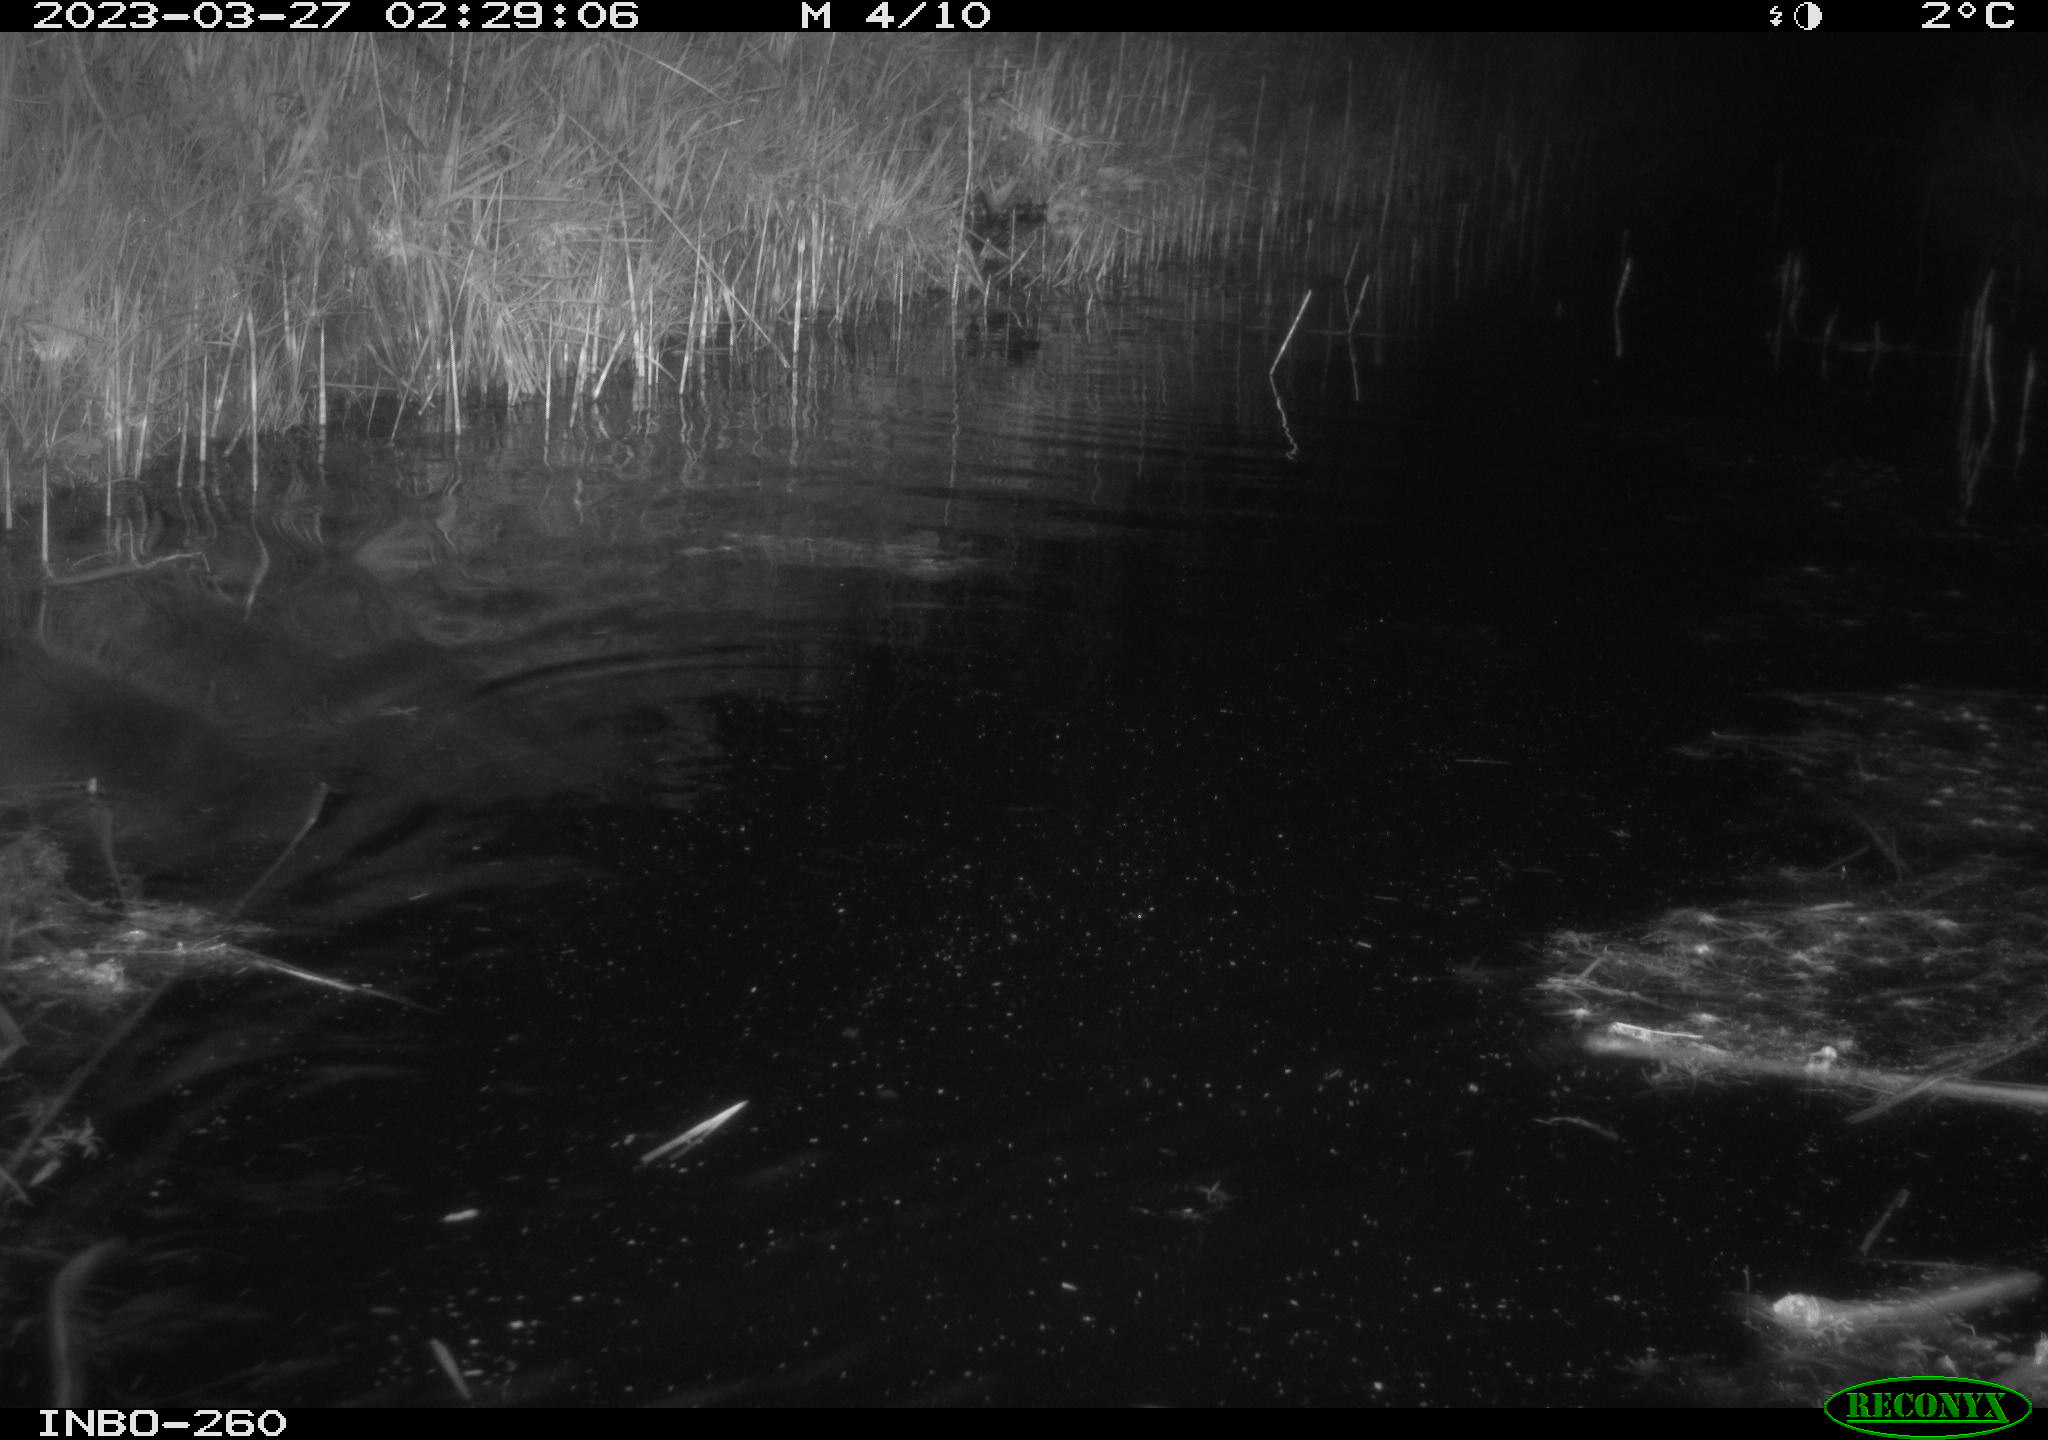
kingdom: Animalia
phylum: Chordata
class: Mammalia
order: Rodentia
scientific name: Rodentia
